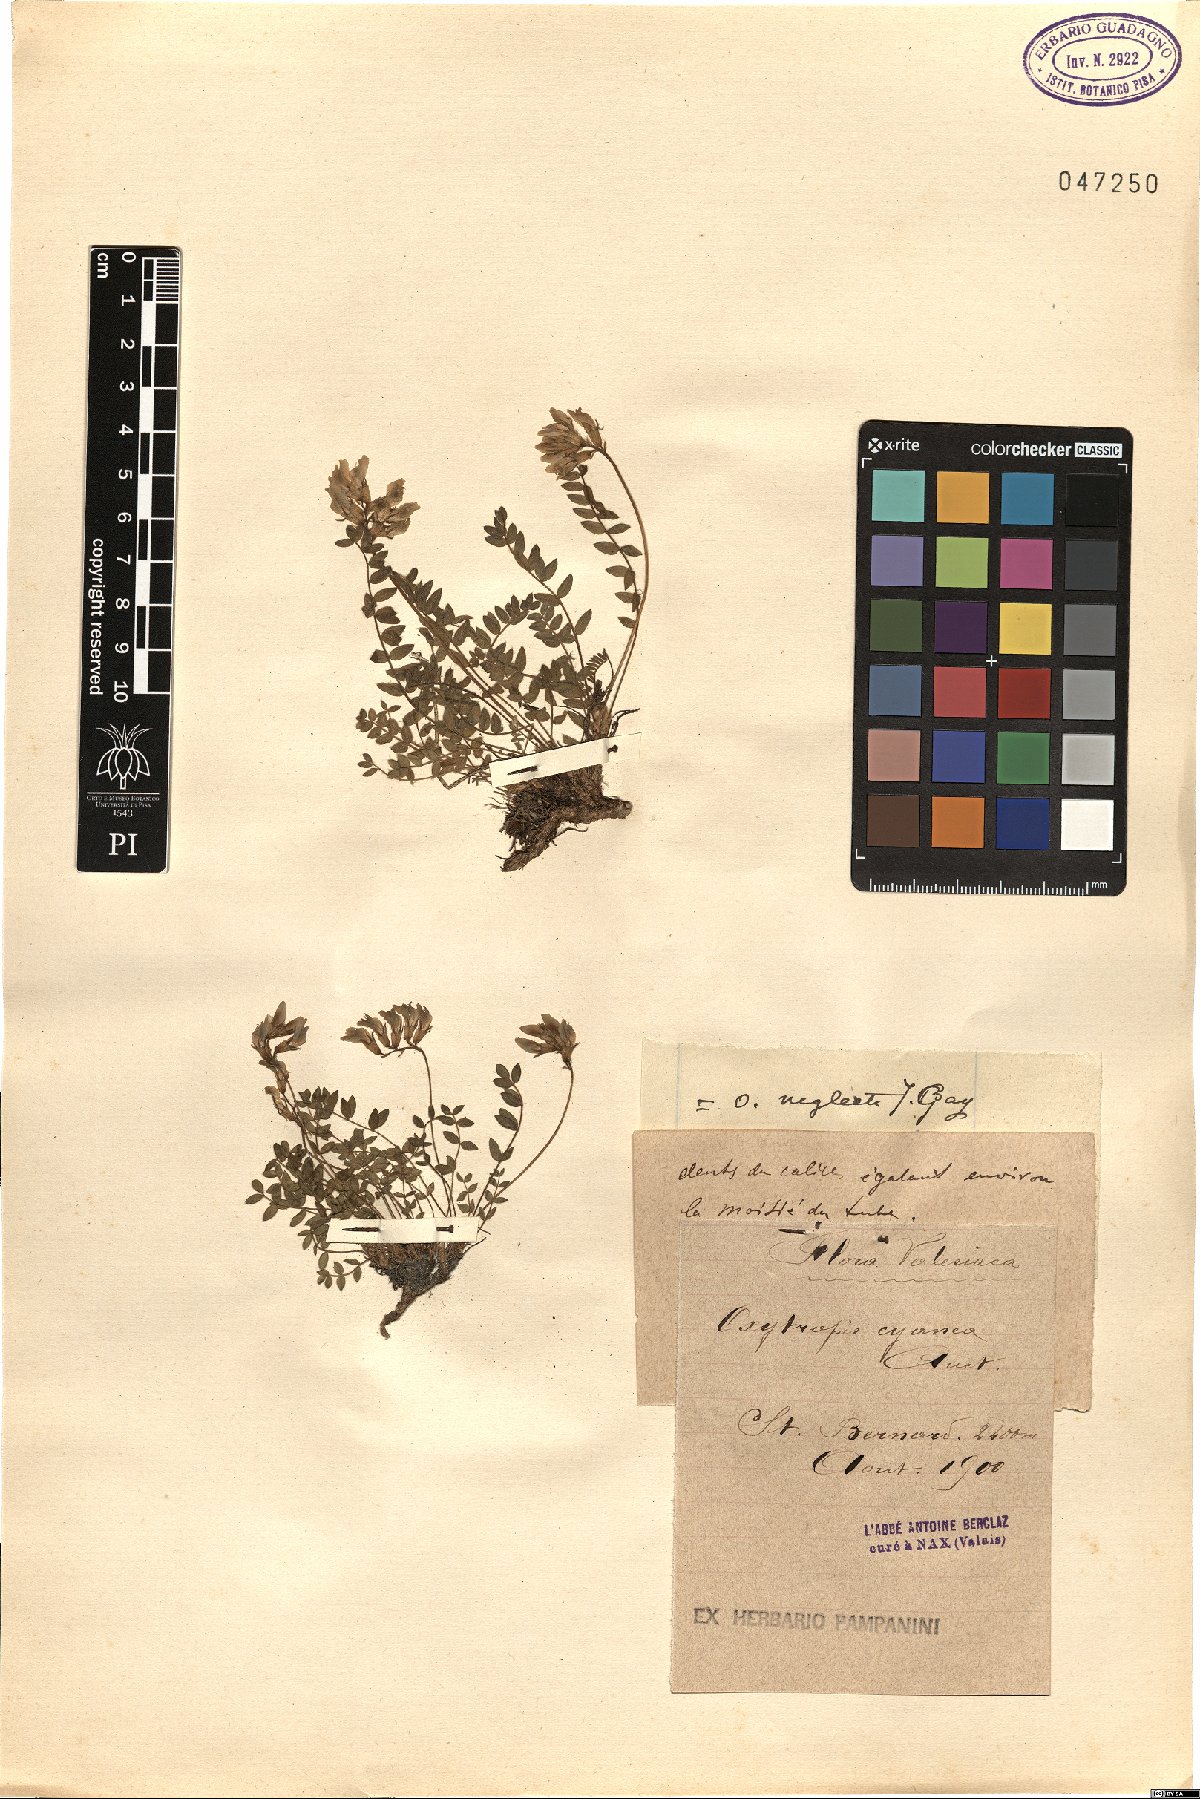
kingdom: Plantae
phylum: Tracheophyta
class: Magnoliopsida
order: Fabales
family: Fabaceae
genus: Oxytropis
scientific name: Oxytropis neglecta
